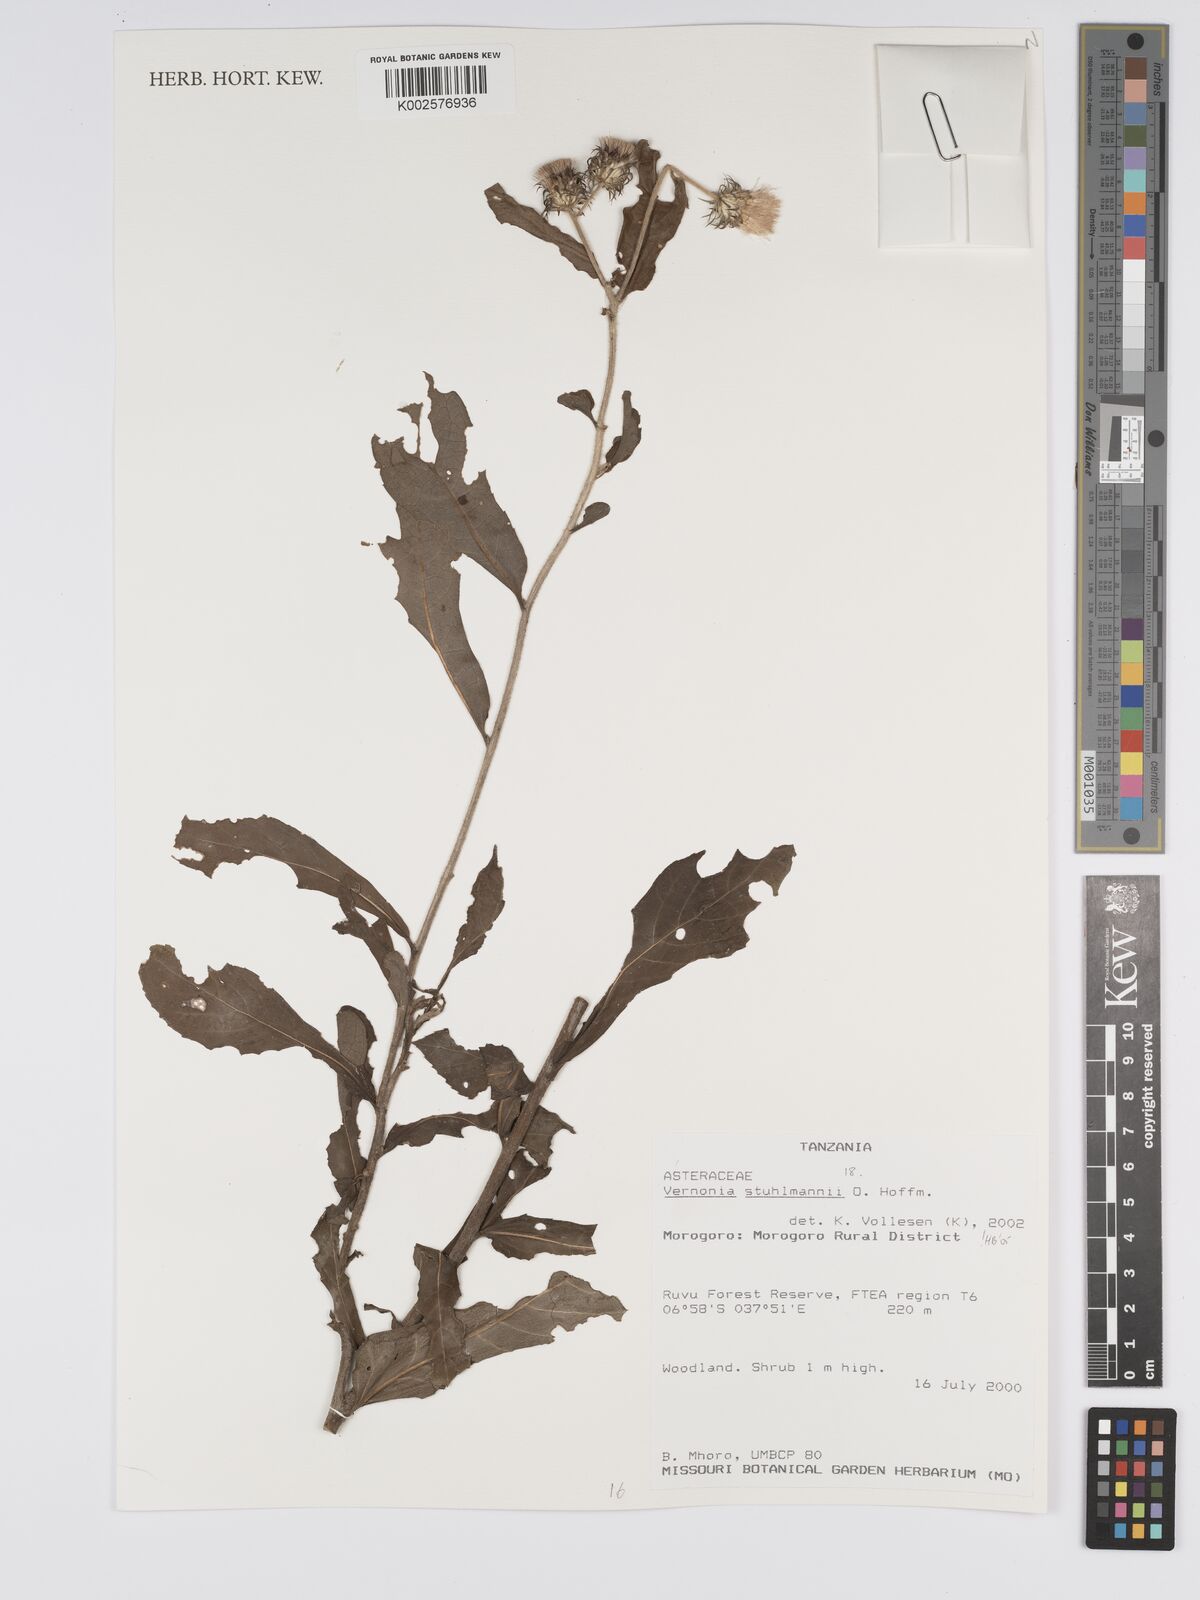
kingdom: Plantae
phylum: Tracheophyta
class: Magnoliopsida
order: Asterales
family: Asteraceae
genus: Vernonia
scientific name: Vernonia stuhlmannii
